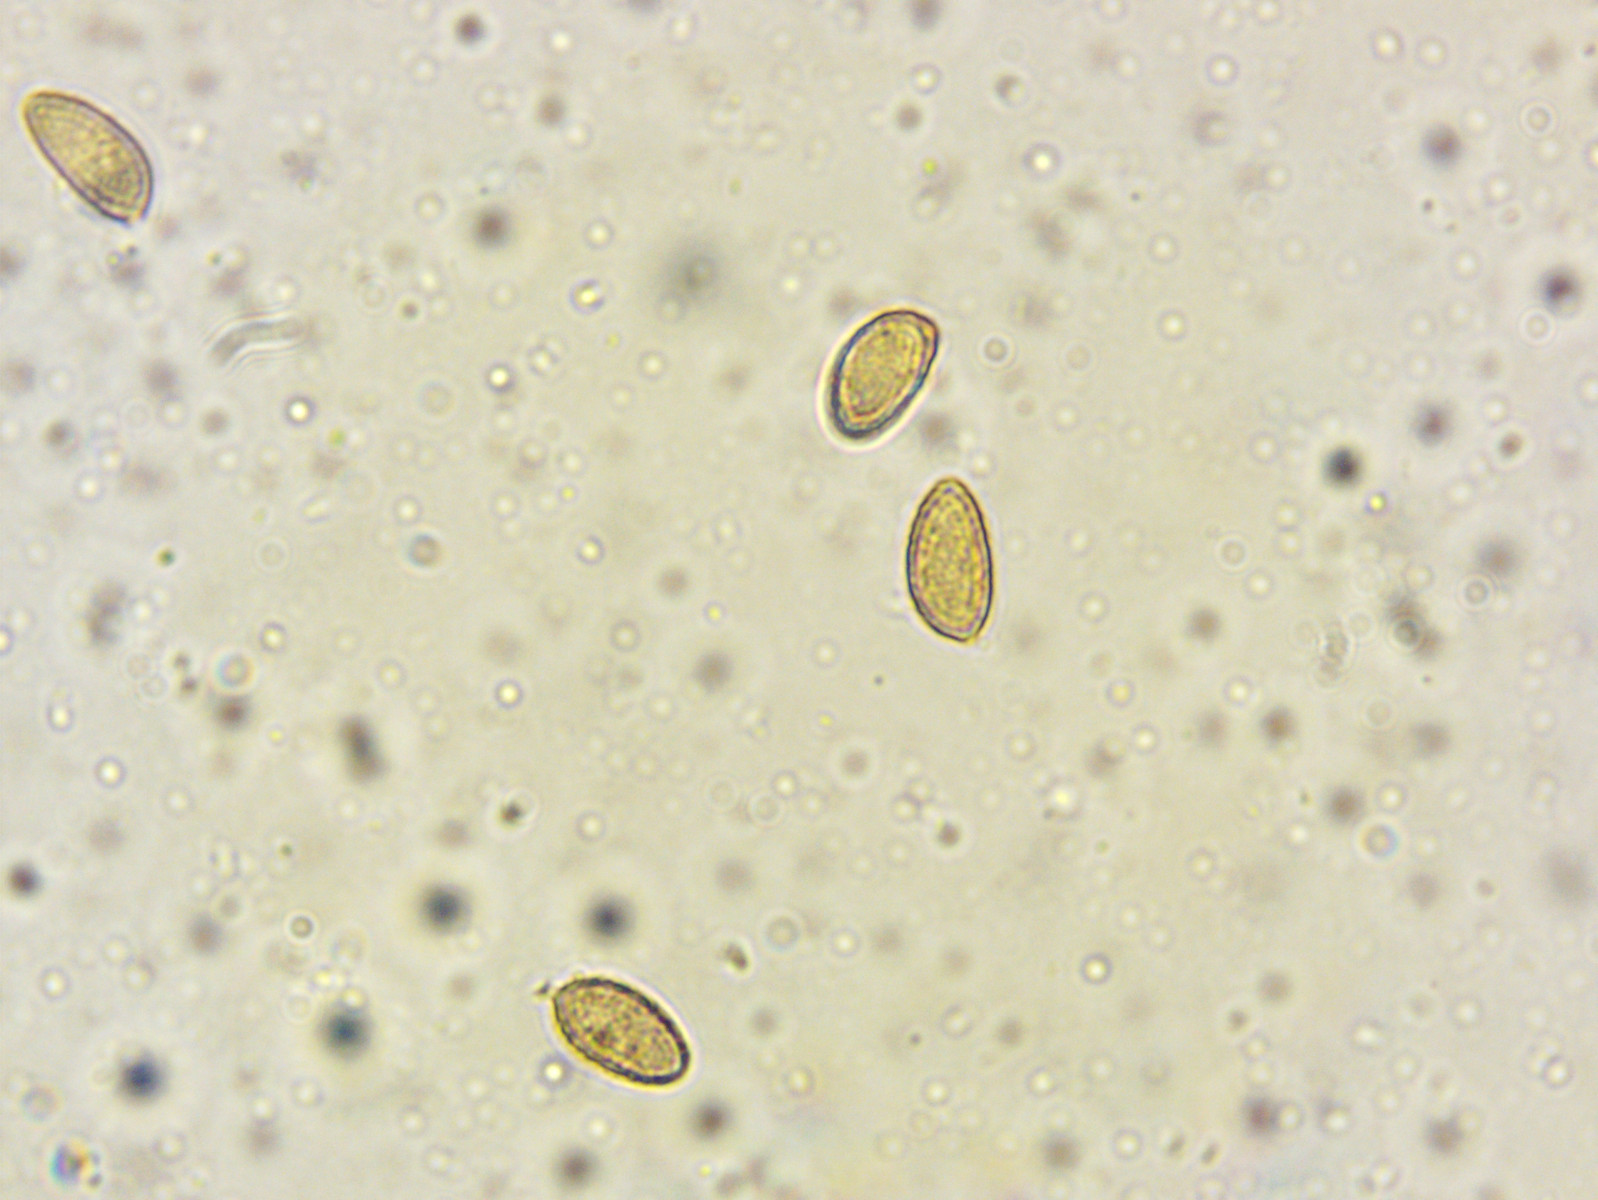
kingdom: Fungi
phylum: Basidiomycota
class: Agaricomycetes
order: Agaricales
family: Hymenogastraceae
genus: Hebeloma
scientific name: Hebeloma
